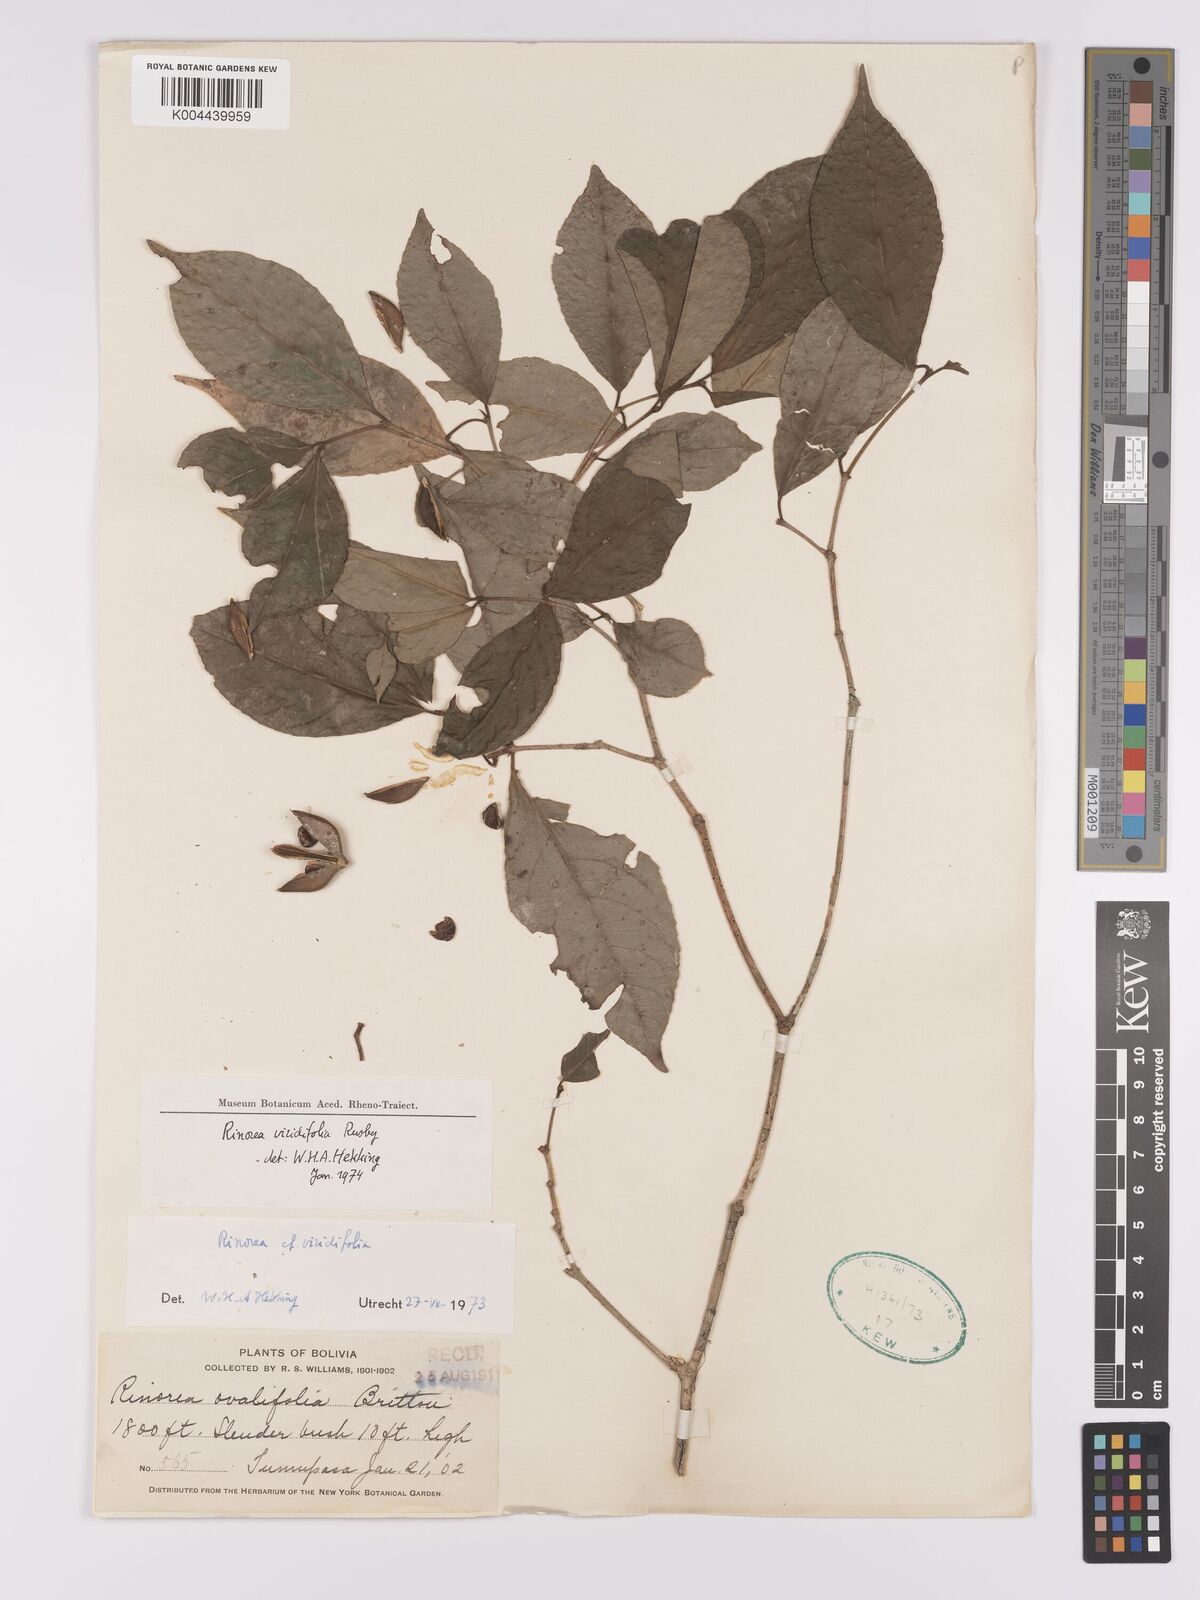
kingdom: Plantae
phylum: Tracheophyta
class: Magnoliopsida
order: Malpighiales
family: Violaceae
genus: Rinorea
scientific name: Rinorea viridifolia
